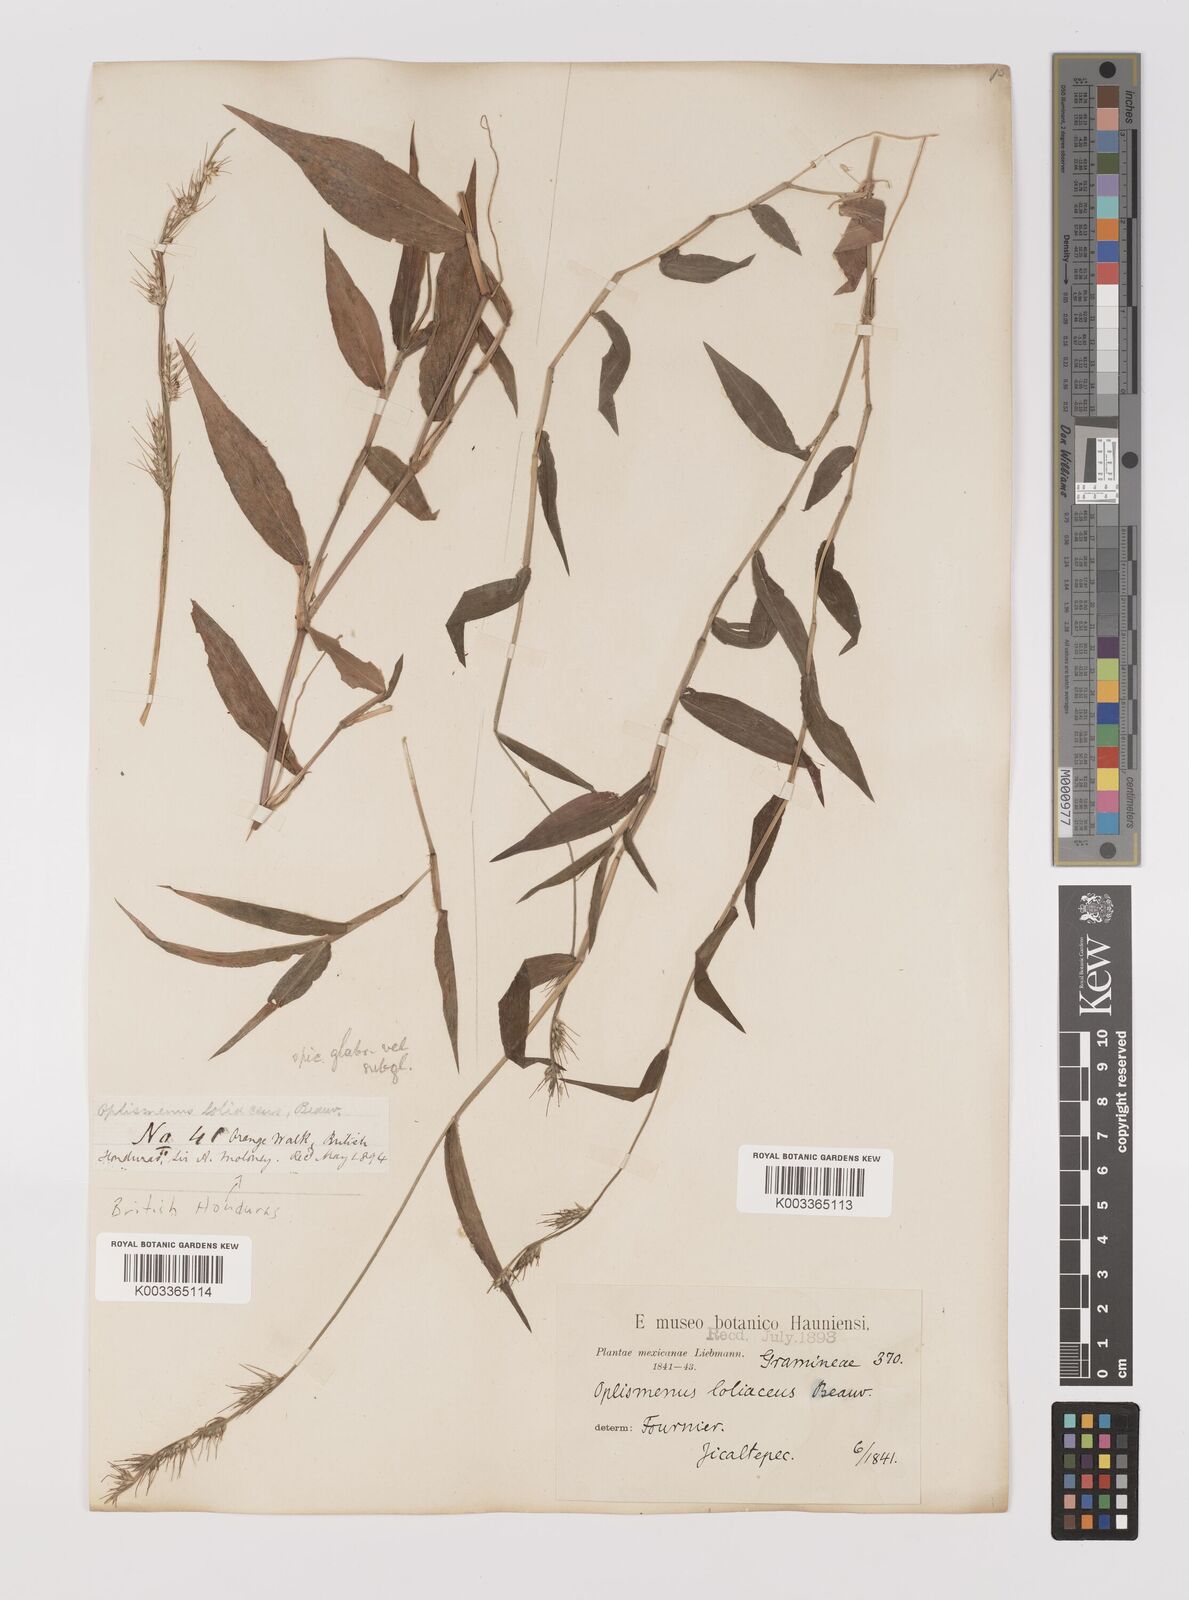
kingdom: Plantae
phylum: Tracheophyta
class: Liliopsida
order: Poales
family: Poaceae
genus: Oplismenus
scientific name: Oplismenus hirtellus
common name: Basketgrass
